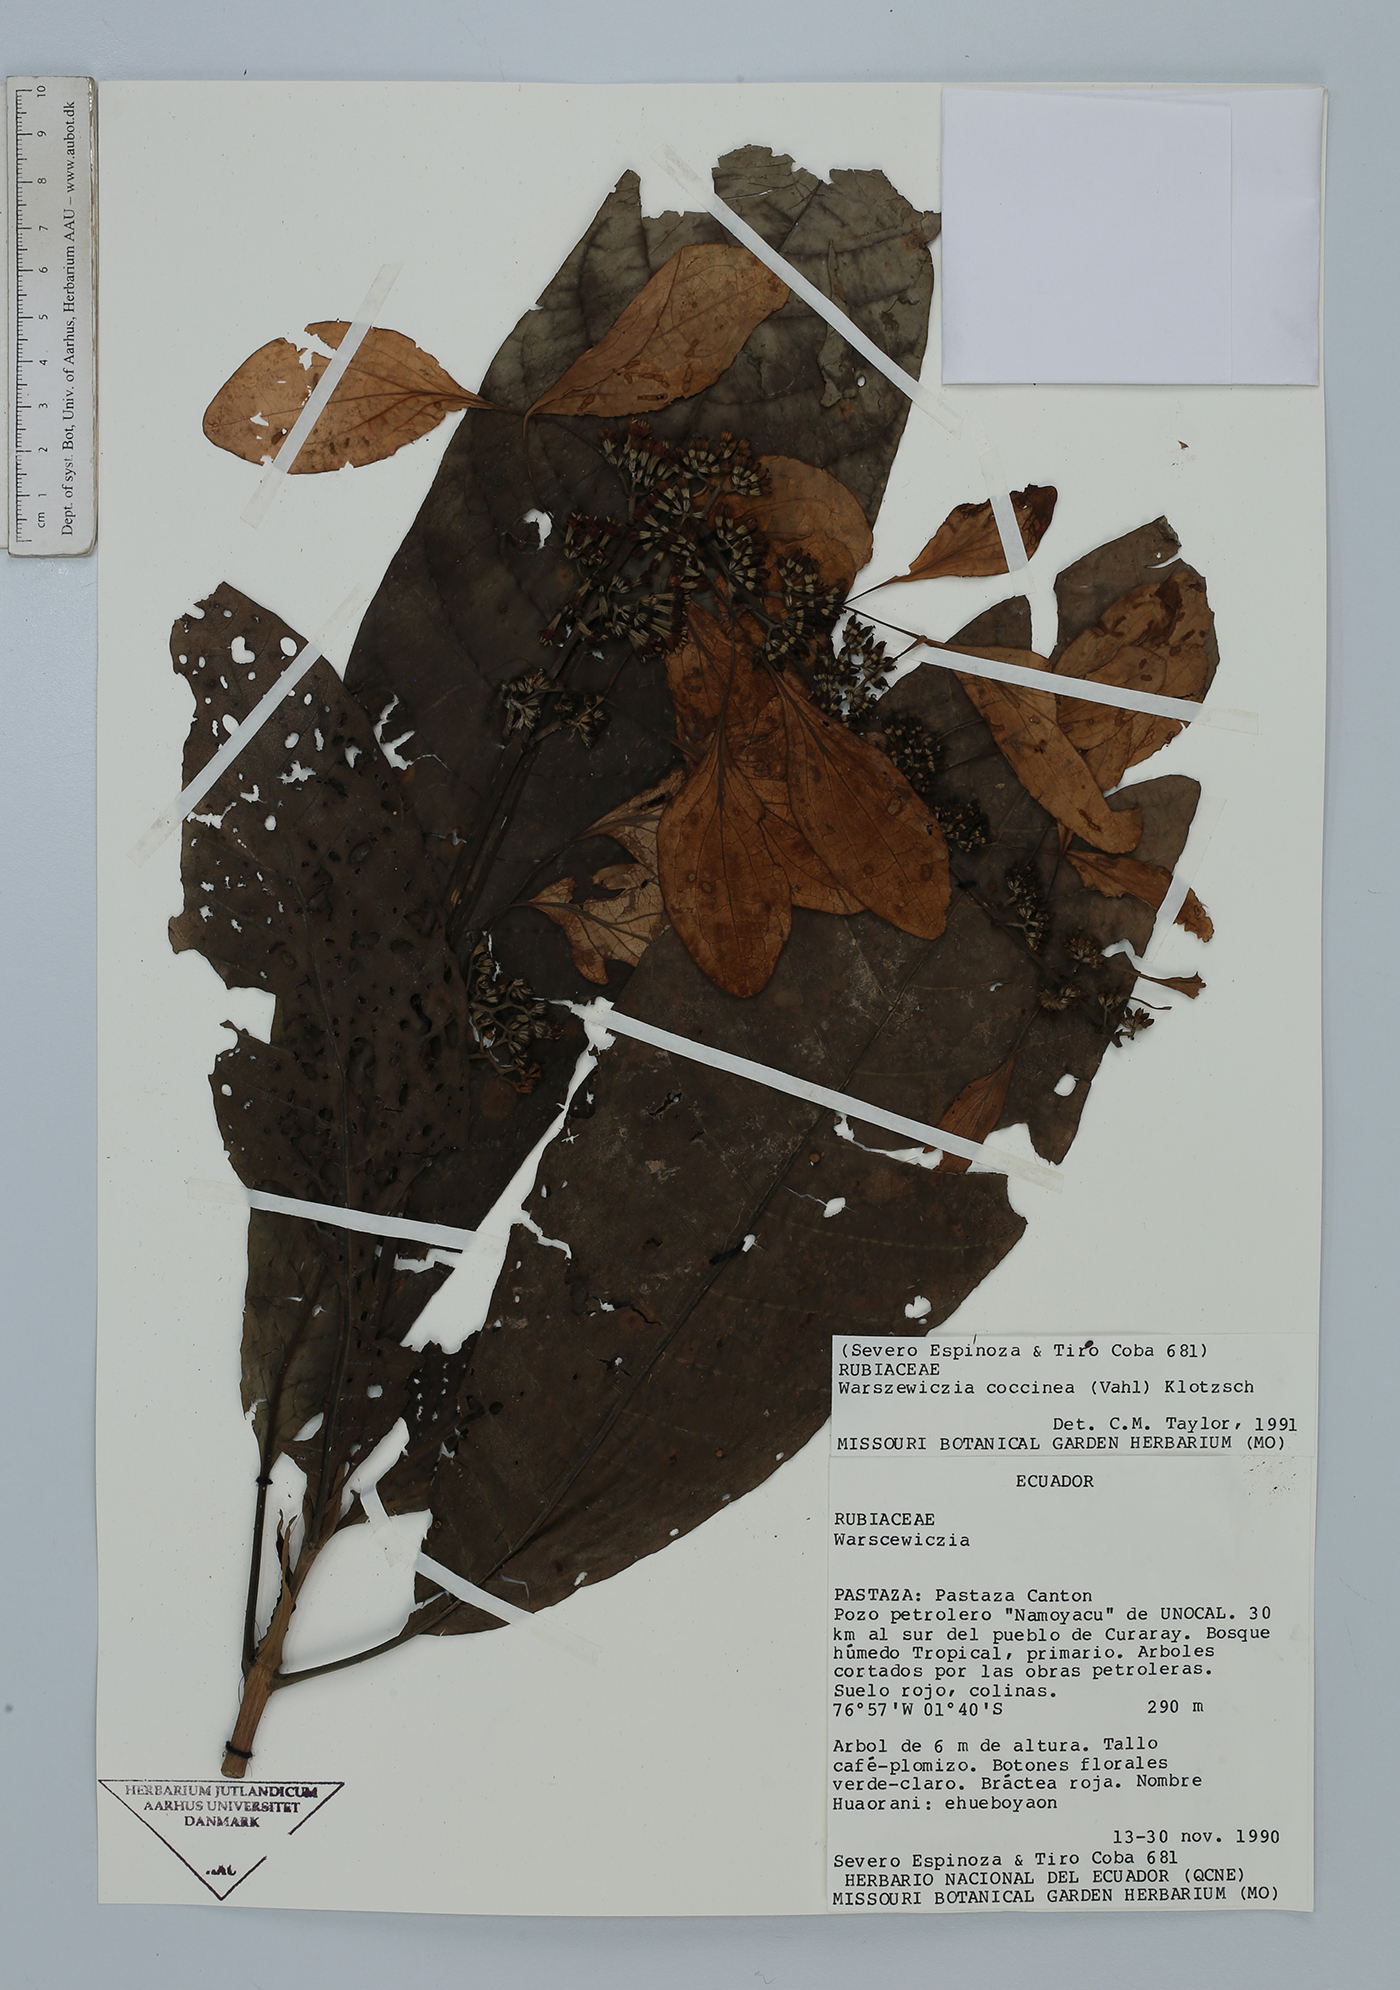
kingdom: Plantae
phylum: Tracheophyta
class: Magnoliopsida
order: Gentianales
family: Rubiaceae
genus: Warszewiczia
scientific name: Warszewiczia coccinea
